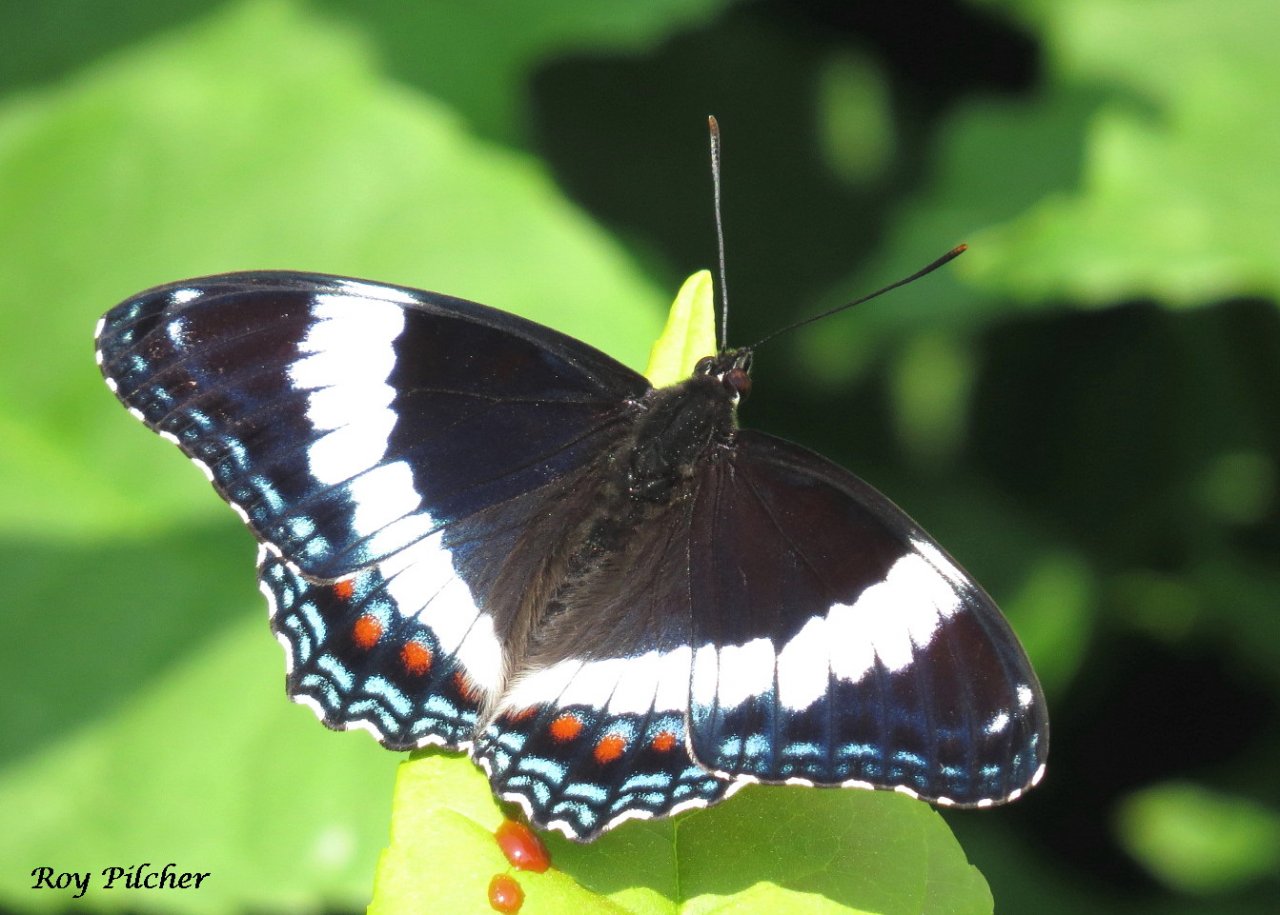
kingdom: Animalia
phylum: Arthropoda
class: Insecta
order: Lepidoptera
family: Nymphalidae
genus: Limenitis
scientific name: Limenitis
